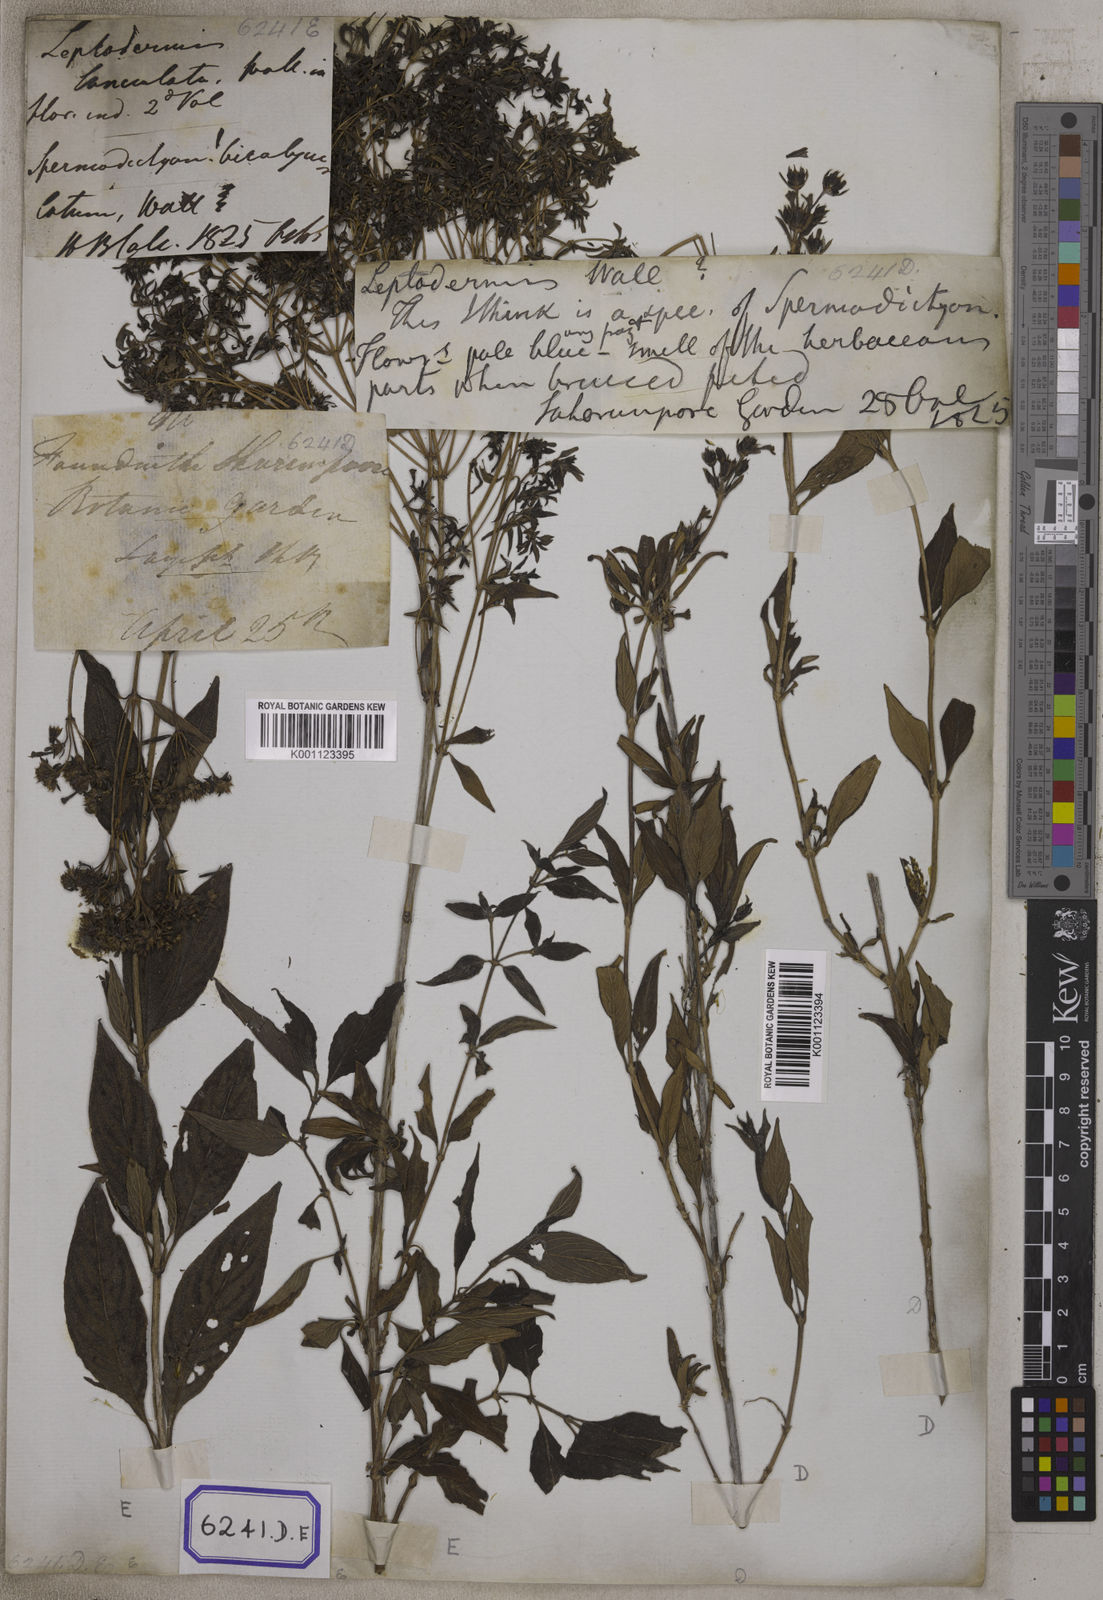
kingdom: Plantae
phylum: Tracheophyta
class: Magnoliopsida
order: Gentianales
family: Rubiaceae
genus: Leptodermis
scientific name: Leptodermis lanceolata
